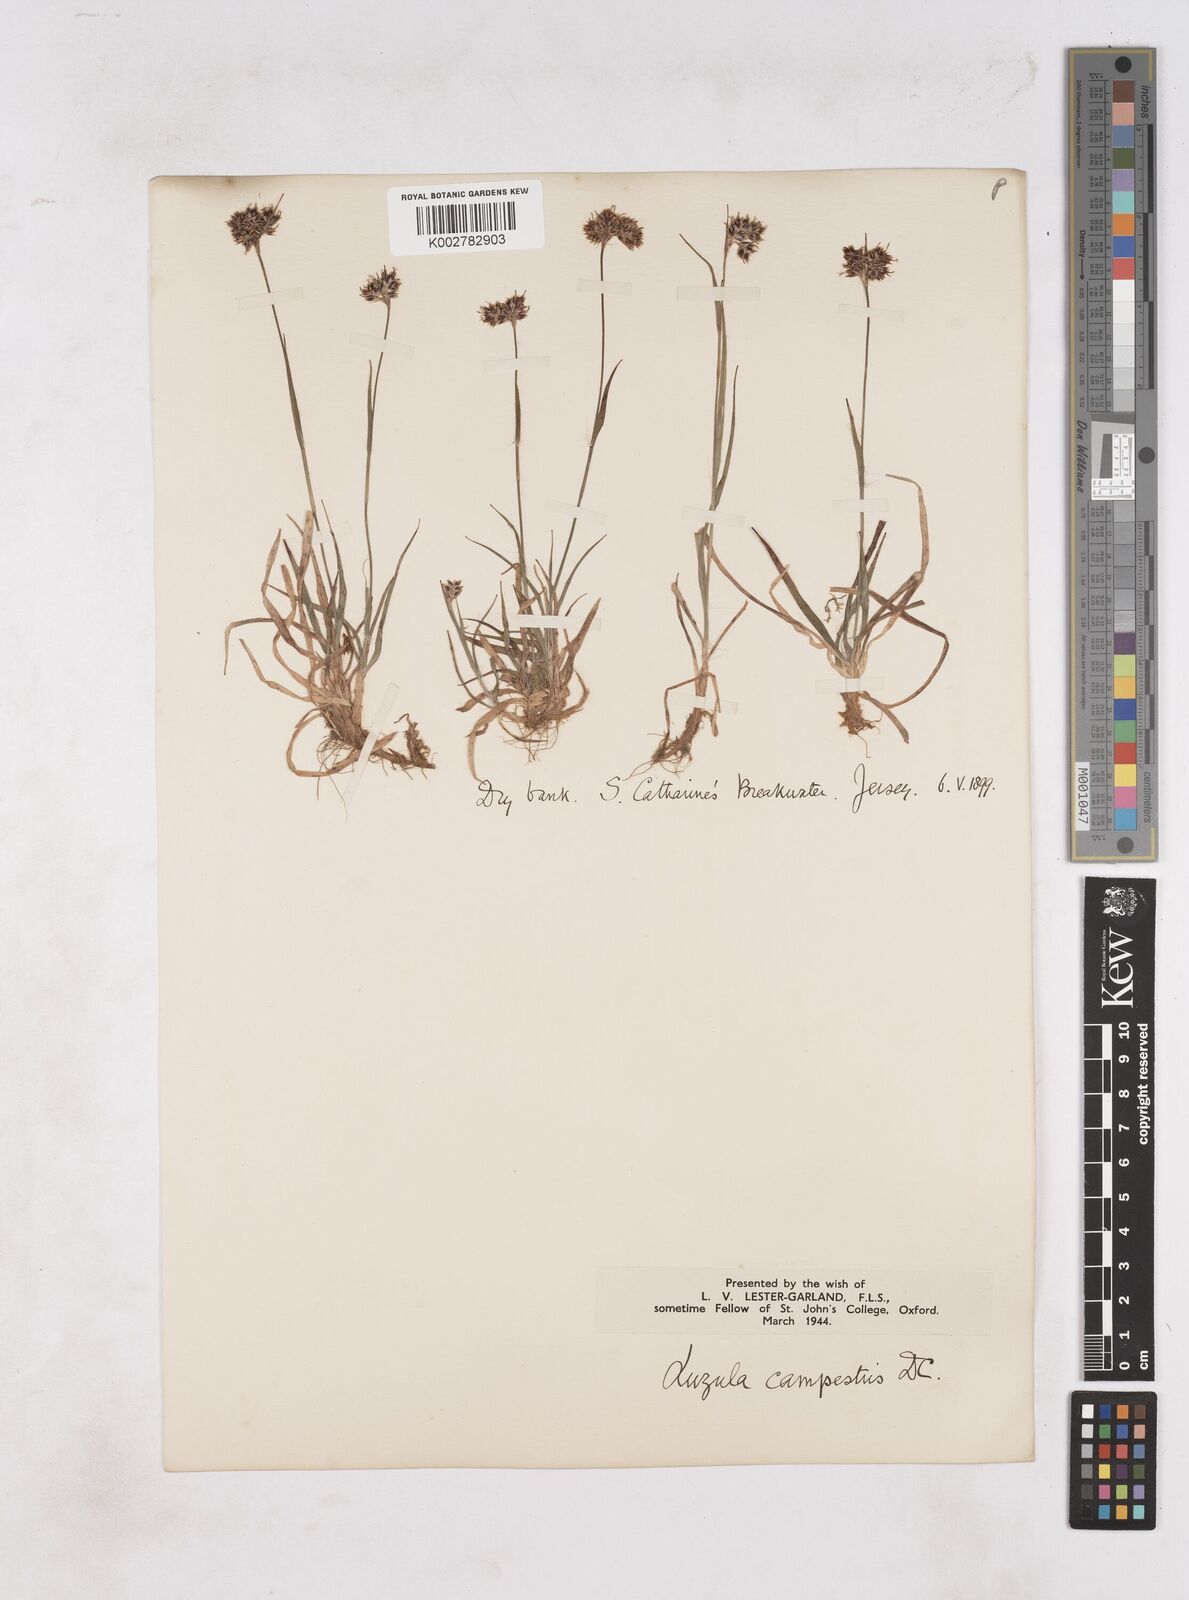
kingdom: Plantae
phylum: Tracheophyta
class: Liliopsida
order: Poales
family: Juncaceae
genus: Luzula
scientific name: Luzula campestris
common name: Field wood-rush
